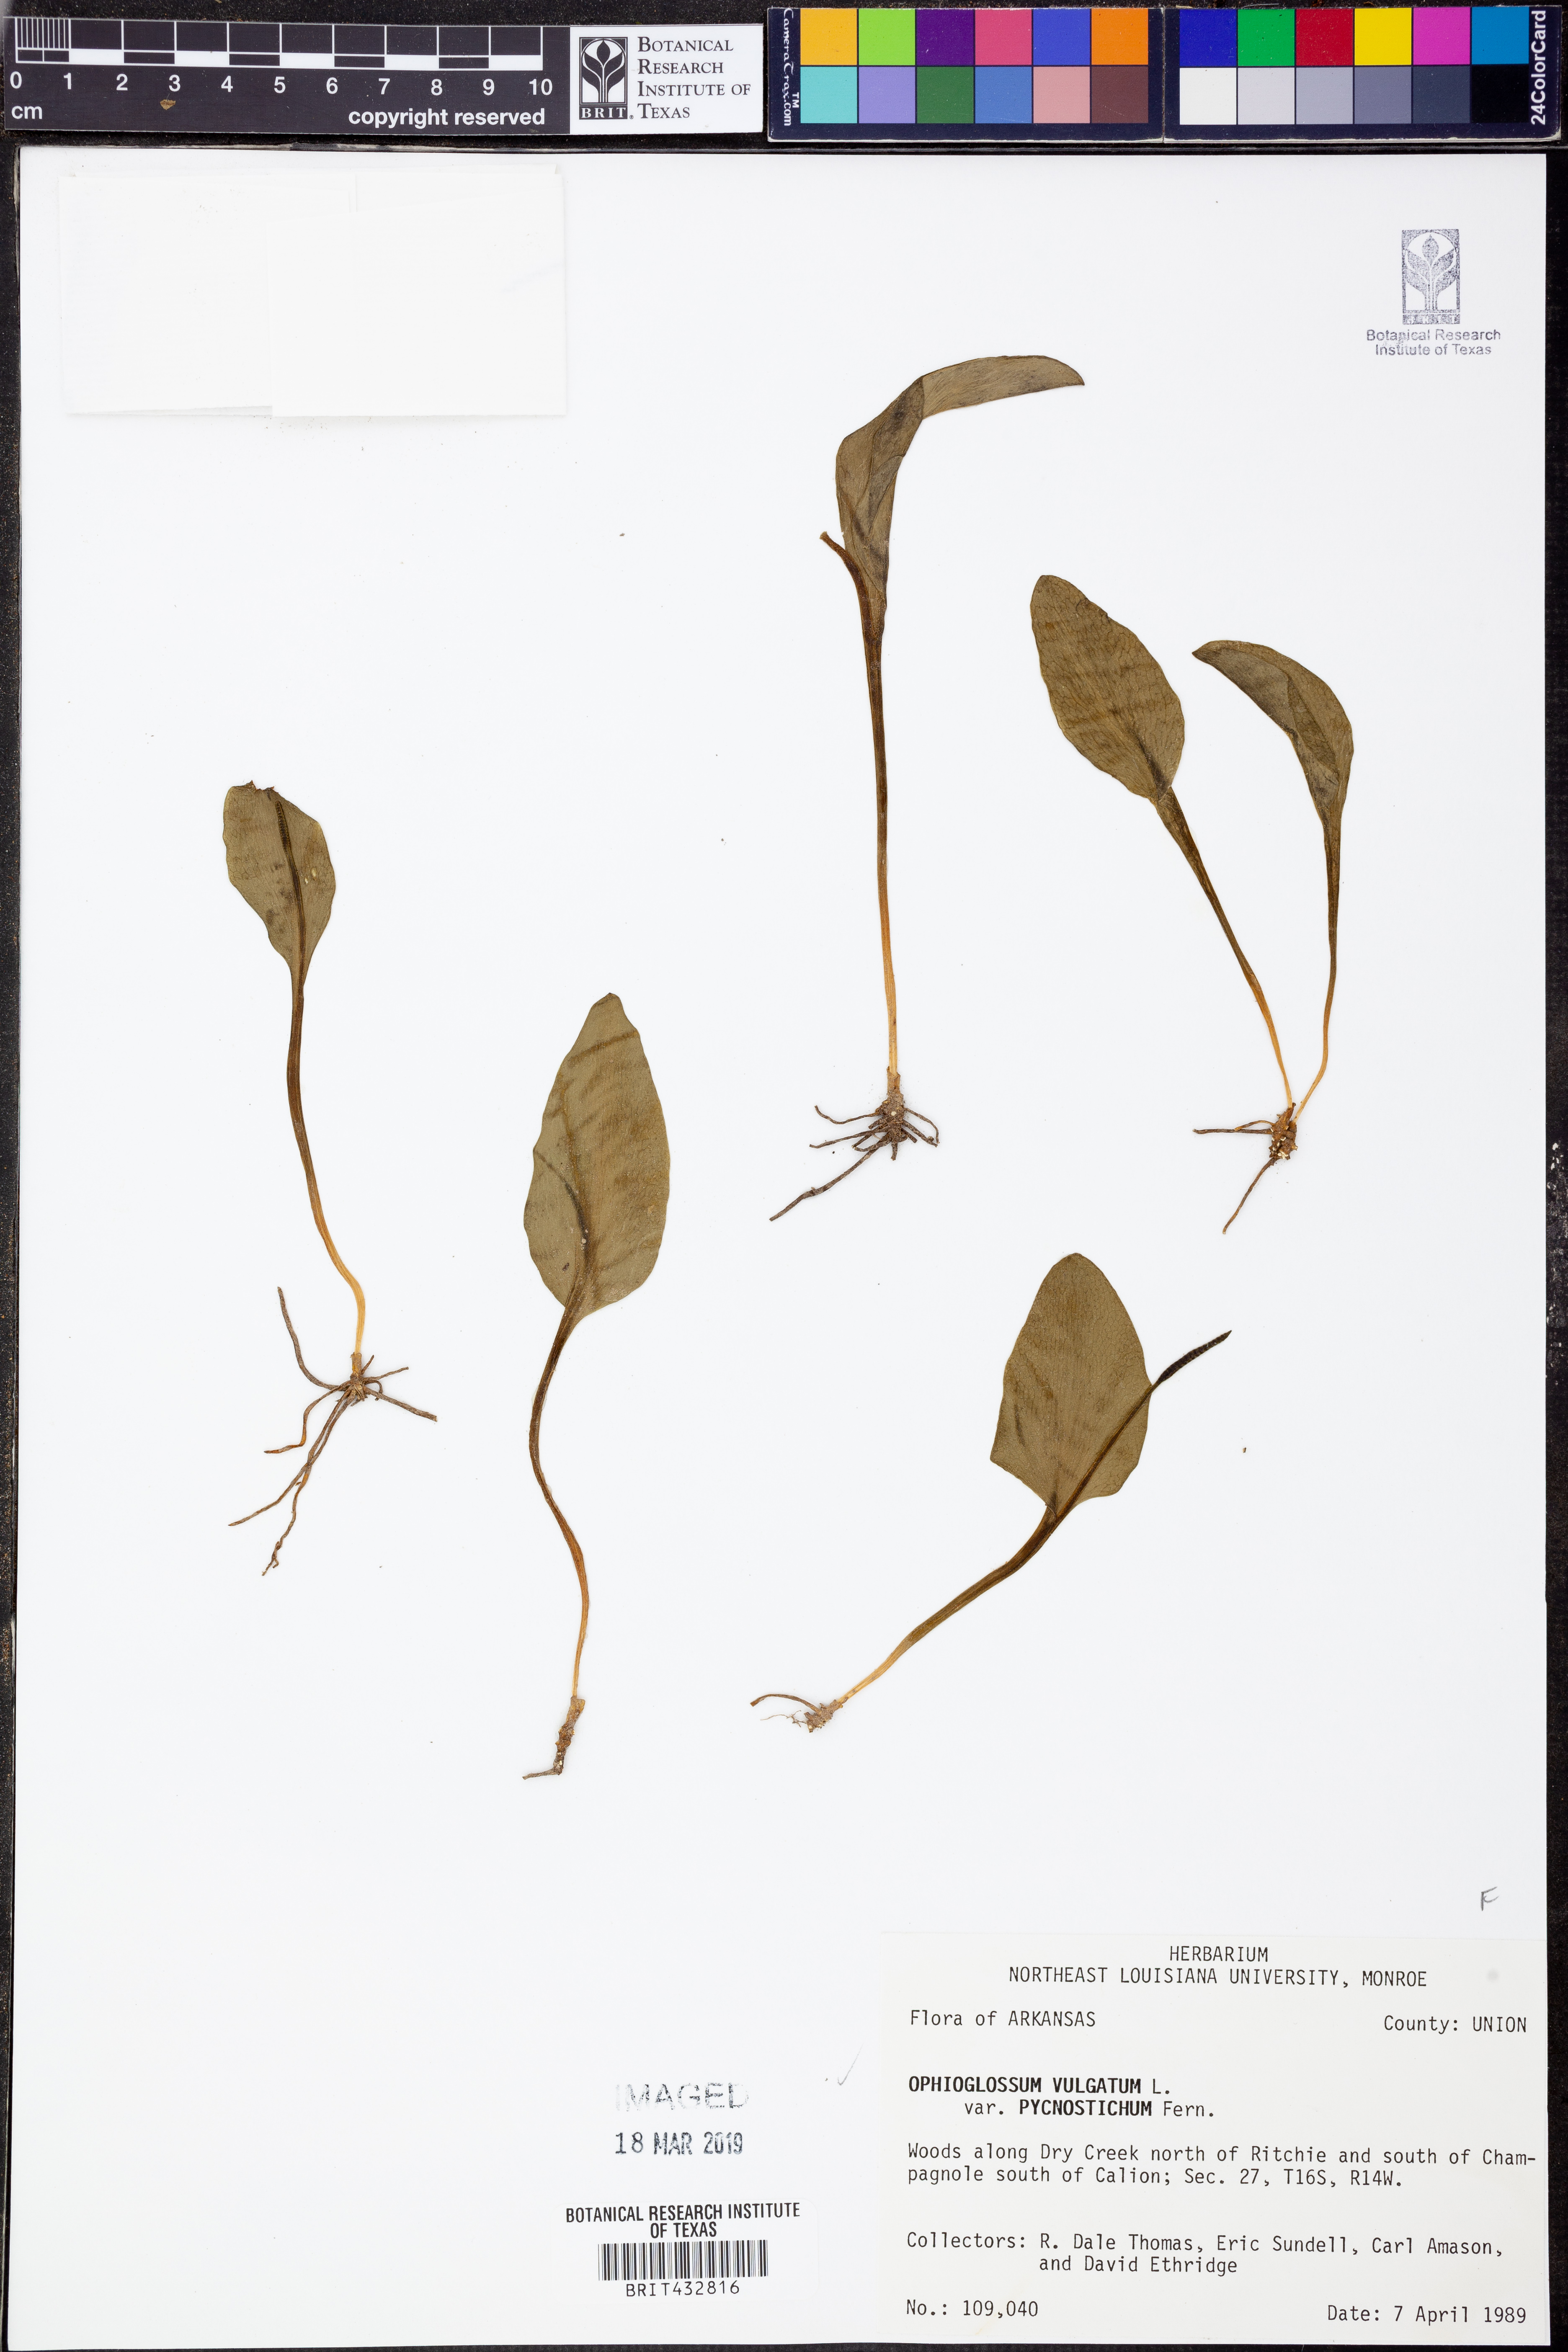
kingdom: Plantae
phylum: Tracheophyta
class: Polypodiopsida
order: Ophioglossales
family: Ophioglossaceae
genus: Ophioglossum
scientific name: Ophioglossum vulgatum
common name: Adder's-tongue
